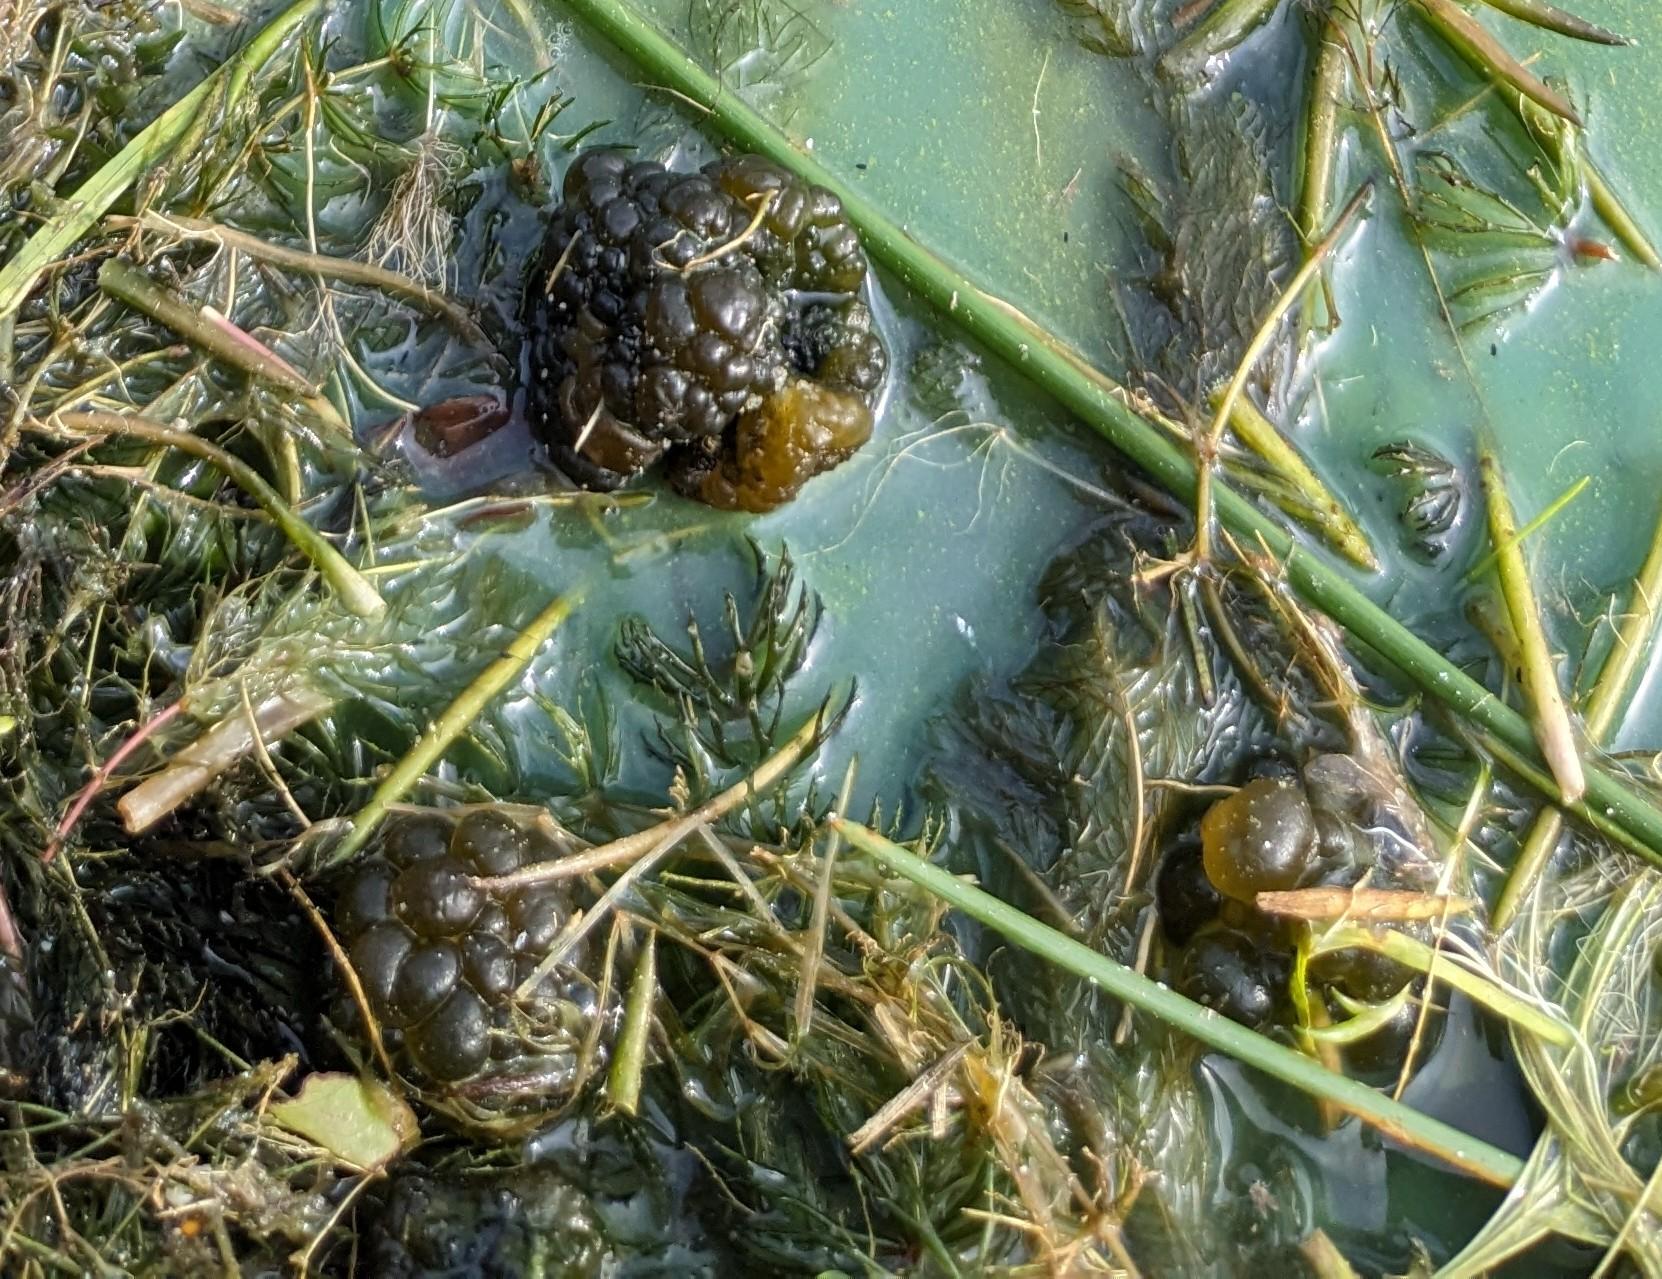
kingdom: Bacteria
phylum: Cyanobacteria
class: Cyanobacteriia
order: Cyanobacteriales
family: Nostocaceae
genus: Nostoc
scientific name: Nostoc zetterstedtii
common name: Søbrombær
